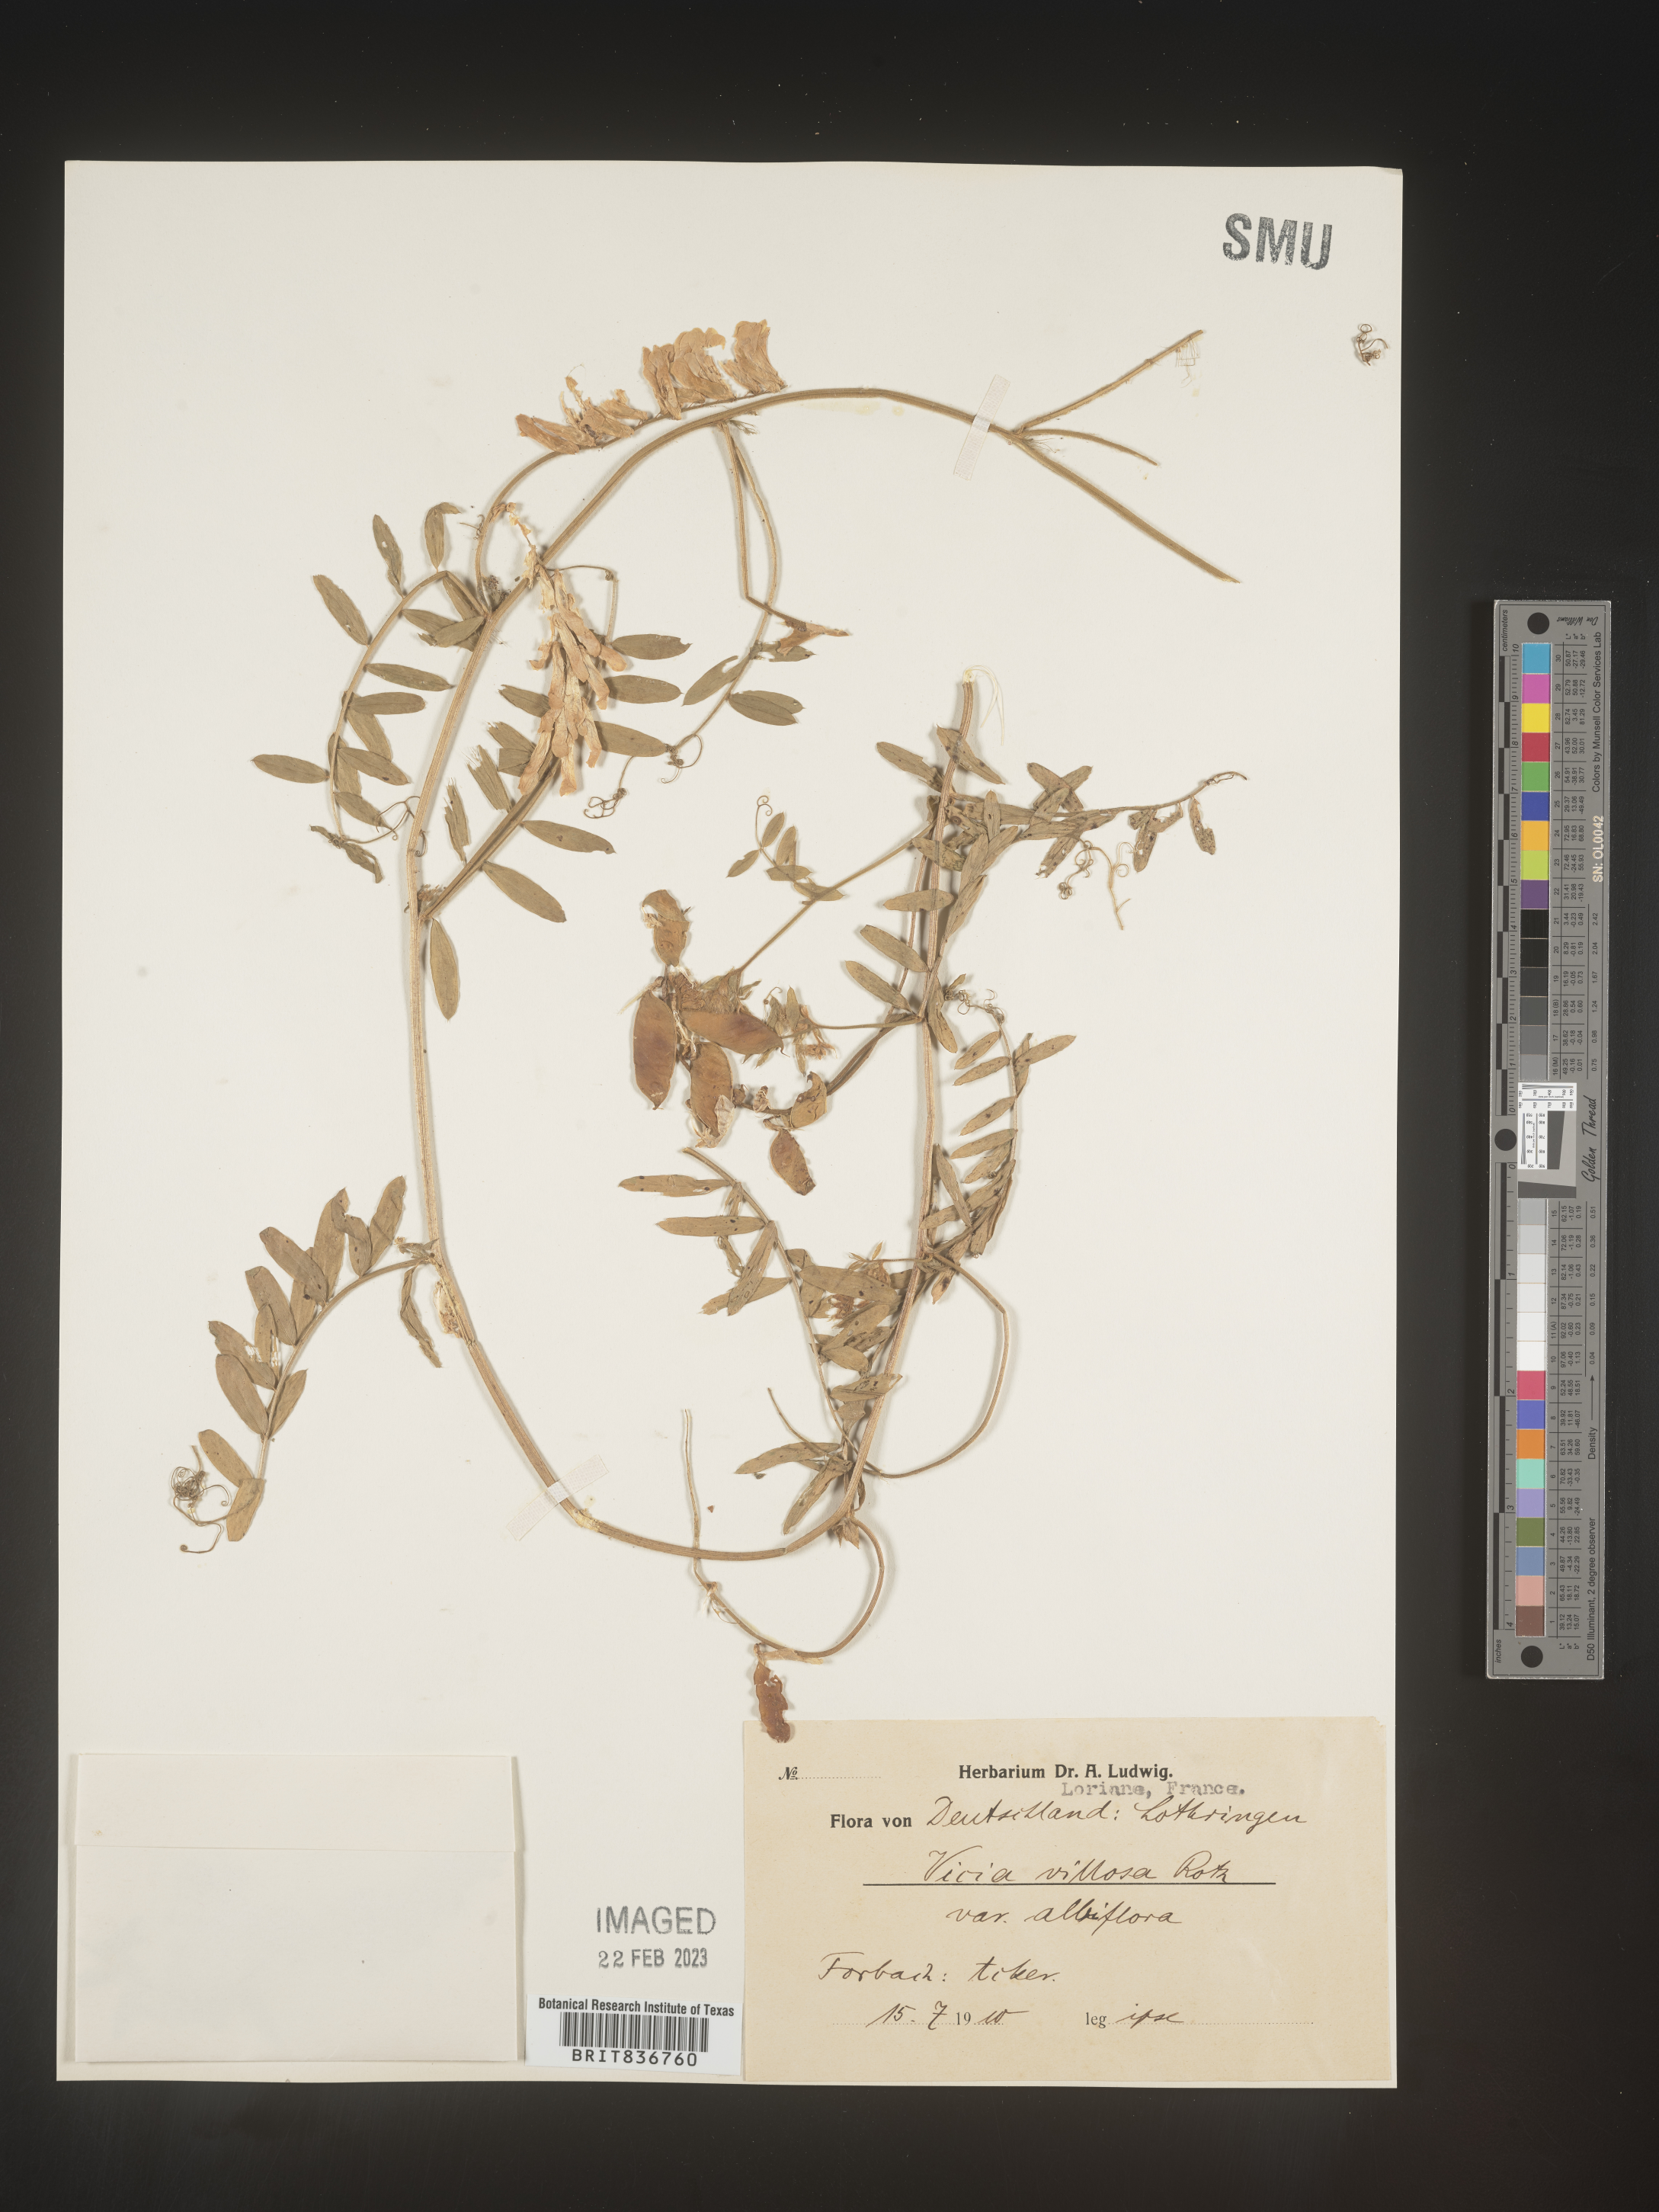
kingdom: Plantae
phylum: Tracheophyta
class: Magnoliopsida
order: Fabales
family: Fabaceae
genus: Vicia
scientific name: Vicia
